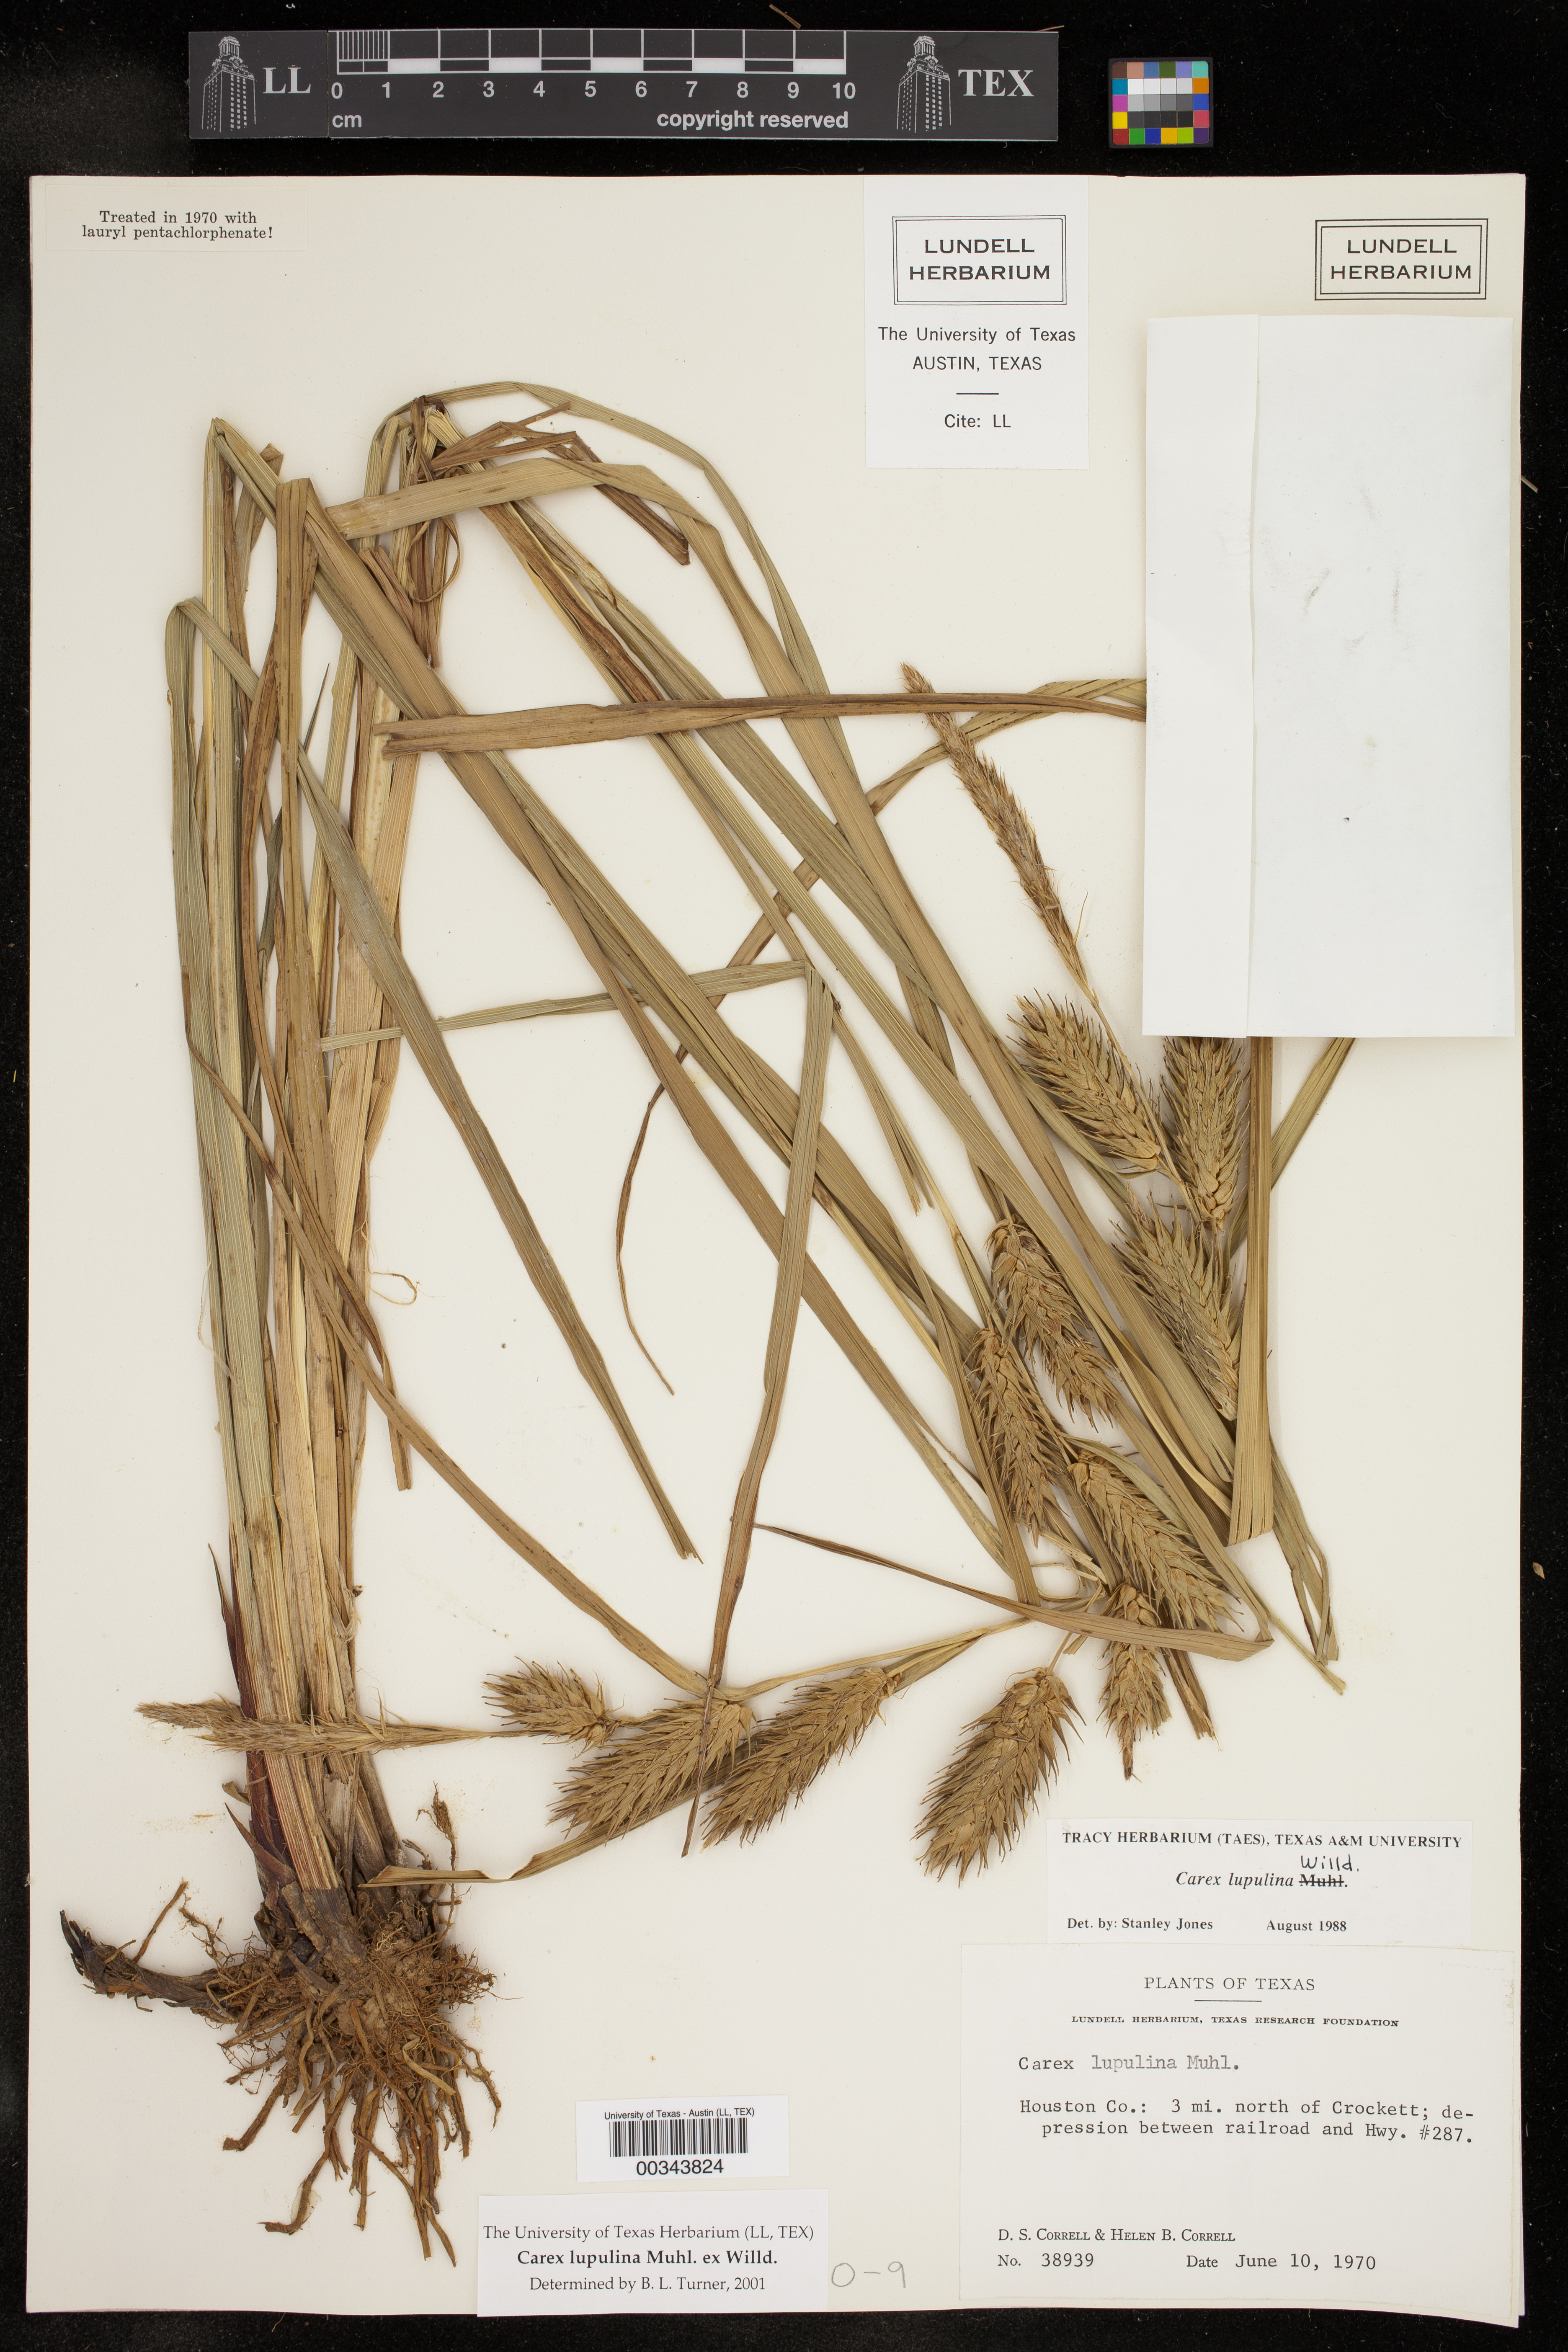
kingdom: Plantae
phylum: Tracheophyta
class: Liliopsida
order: Poales
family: Cyperaceae
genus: Carex
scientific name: Carex lupulina
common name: Hop sedge
